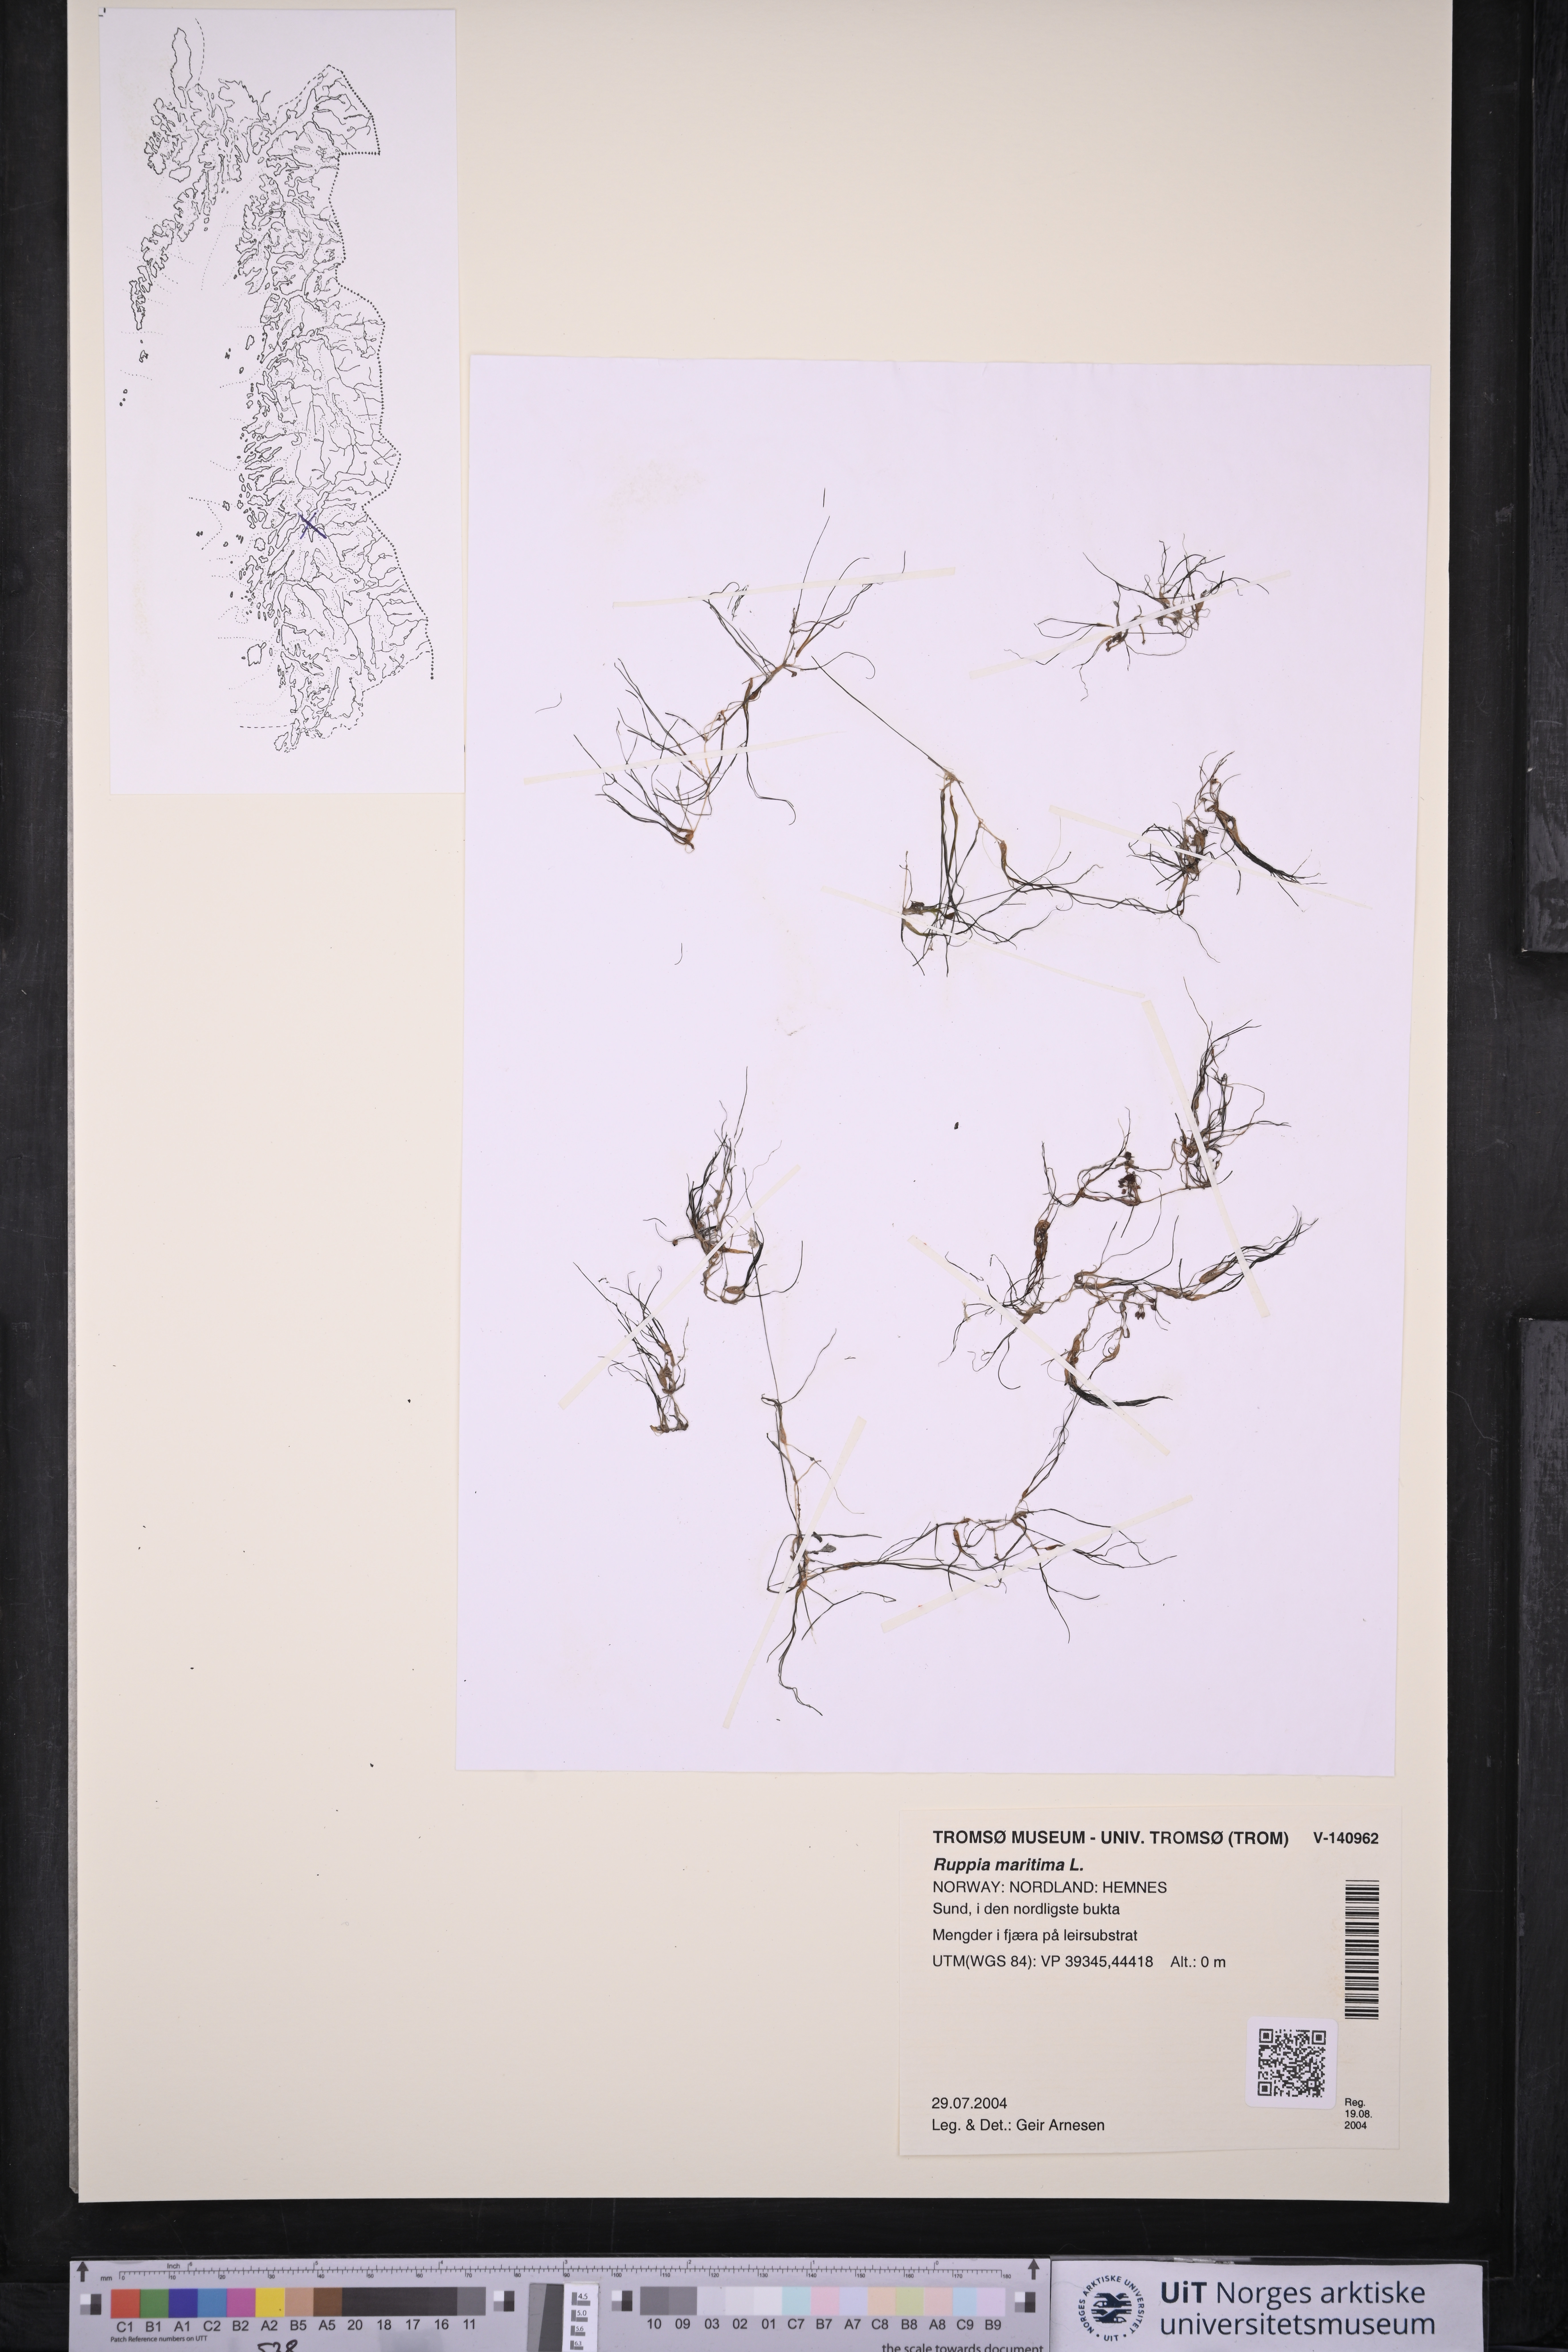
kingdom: Plantae
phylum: Tracheophyta
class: Liliopsida
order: Alismatales
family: Ruppiaceae
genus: Ruppia
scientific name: Ruppia maritima
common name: Beaked tasselweed
